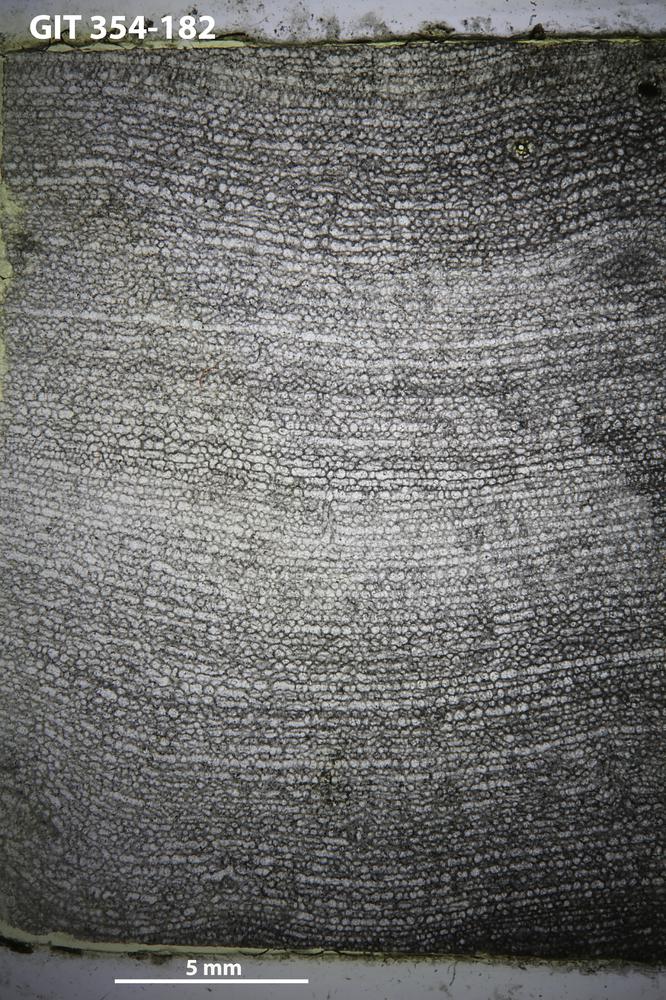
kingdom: Animalia
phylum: Porifera
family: Clathrodictyidae
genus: Clathrodictyon
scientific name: Clathrodictyon boreale
